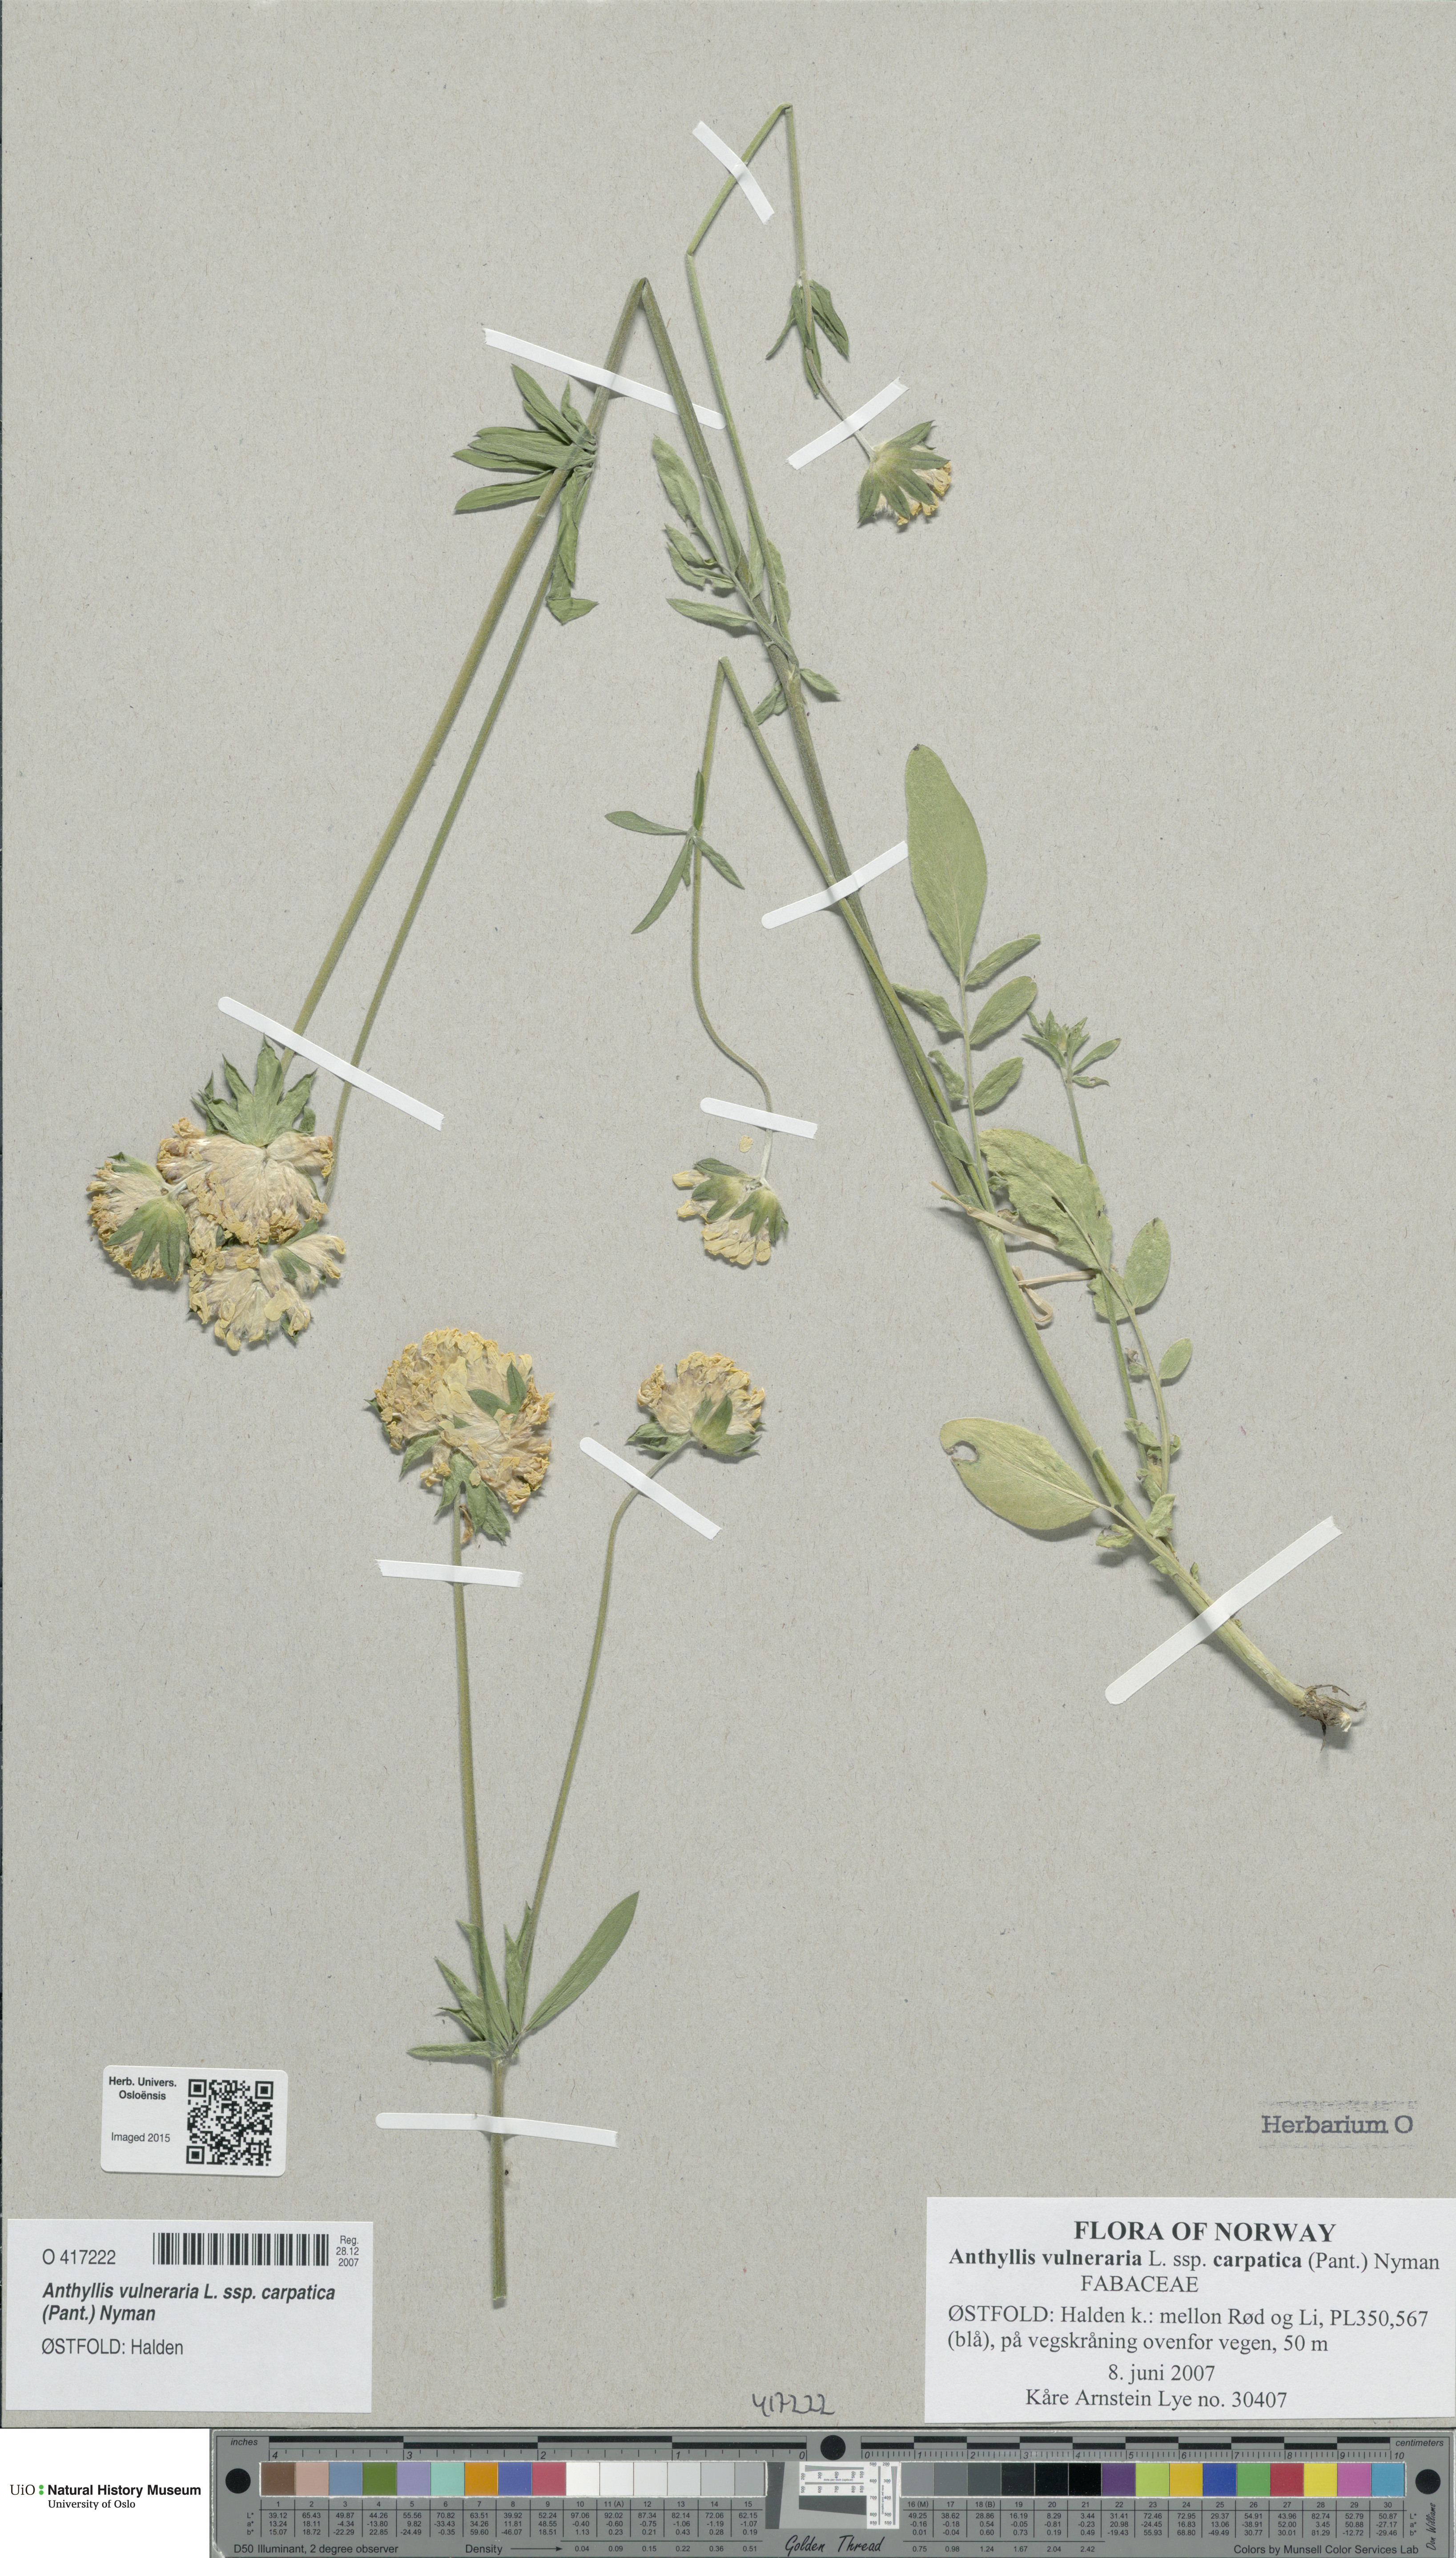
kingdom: Plantae
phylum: Tracheophyta
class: Magnoliopsida
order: Fabales
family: Fabaceae
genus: Anthyllis
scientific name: Anthyllis vulneraria
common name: Kidney vetch
